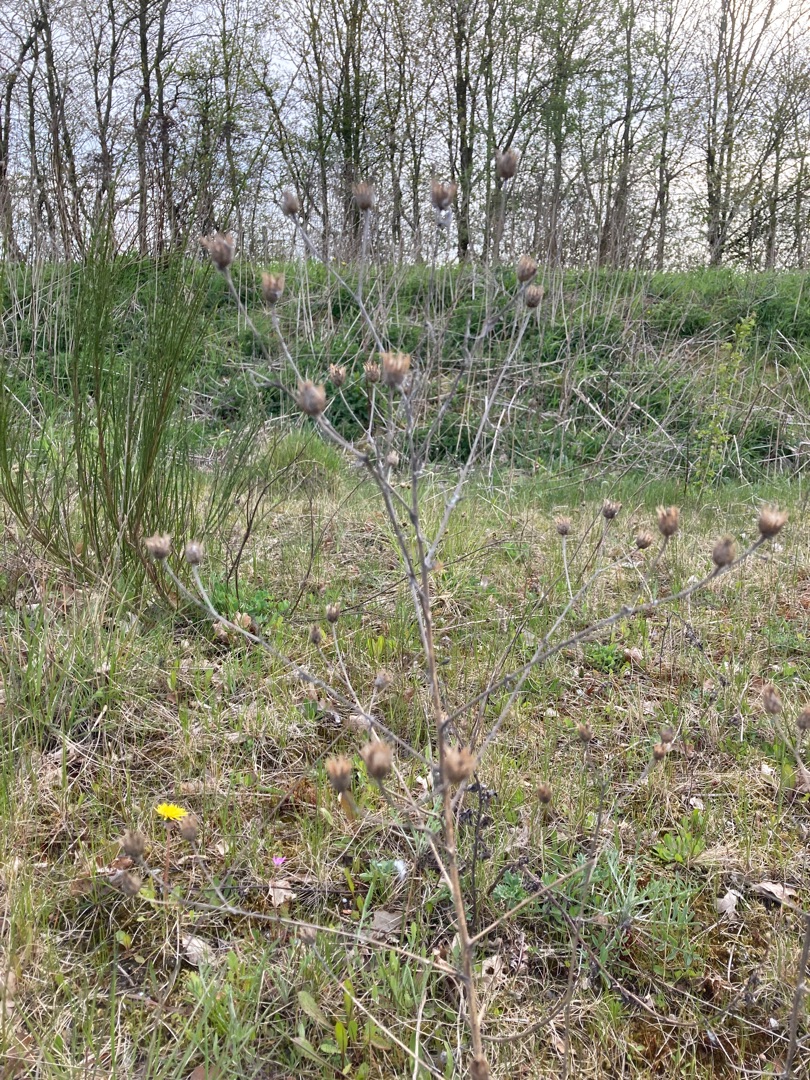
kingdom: Plantae
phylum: Tracheophyta
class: Magnoliopsida
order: Asterales
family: Asteraceae
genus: Centaurea
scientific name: Centaurea stoebe
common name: Mangegrenet knopurt
